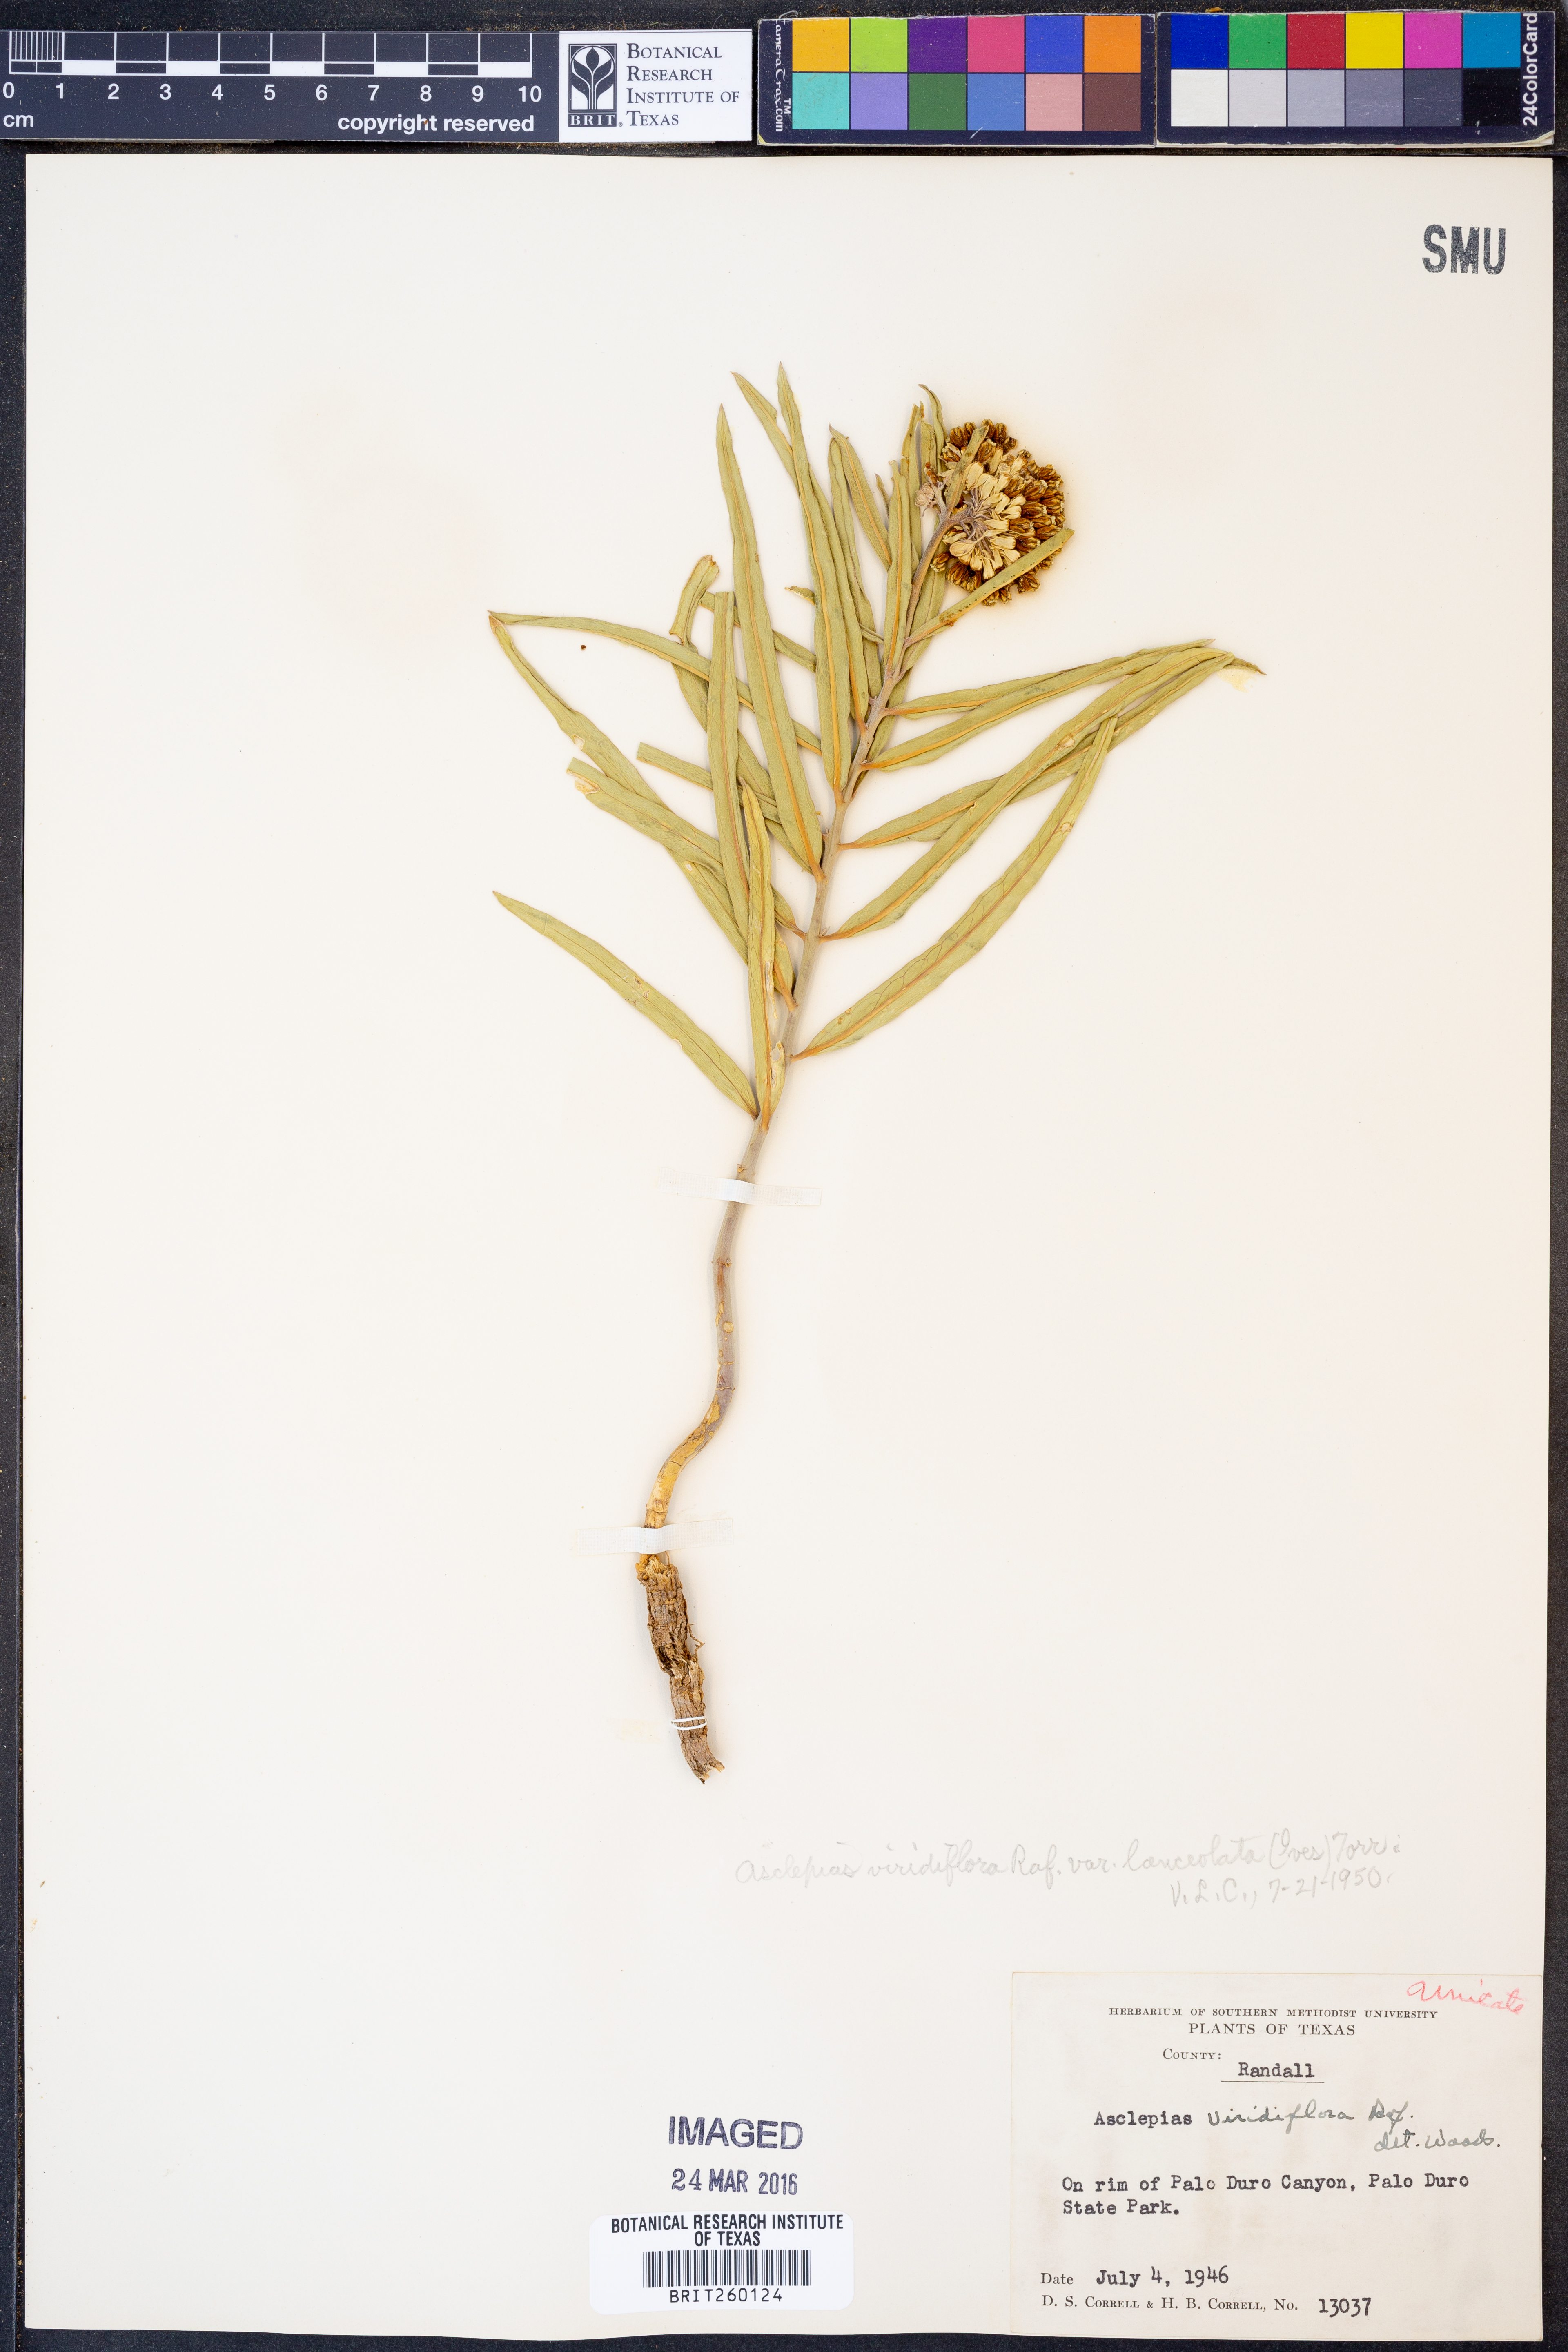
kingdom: Plantae
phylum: Tracheophyta
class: Magnoliopsida
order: Gentianales
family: Apocynaceae
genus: Asclepias
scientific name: Asclepias viridiflora
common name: Green comet milkweed
